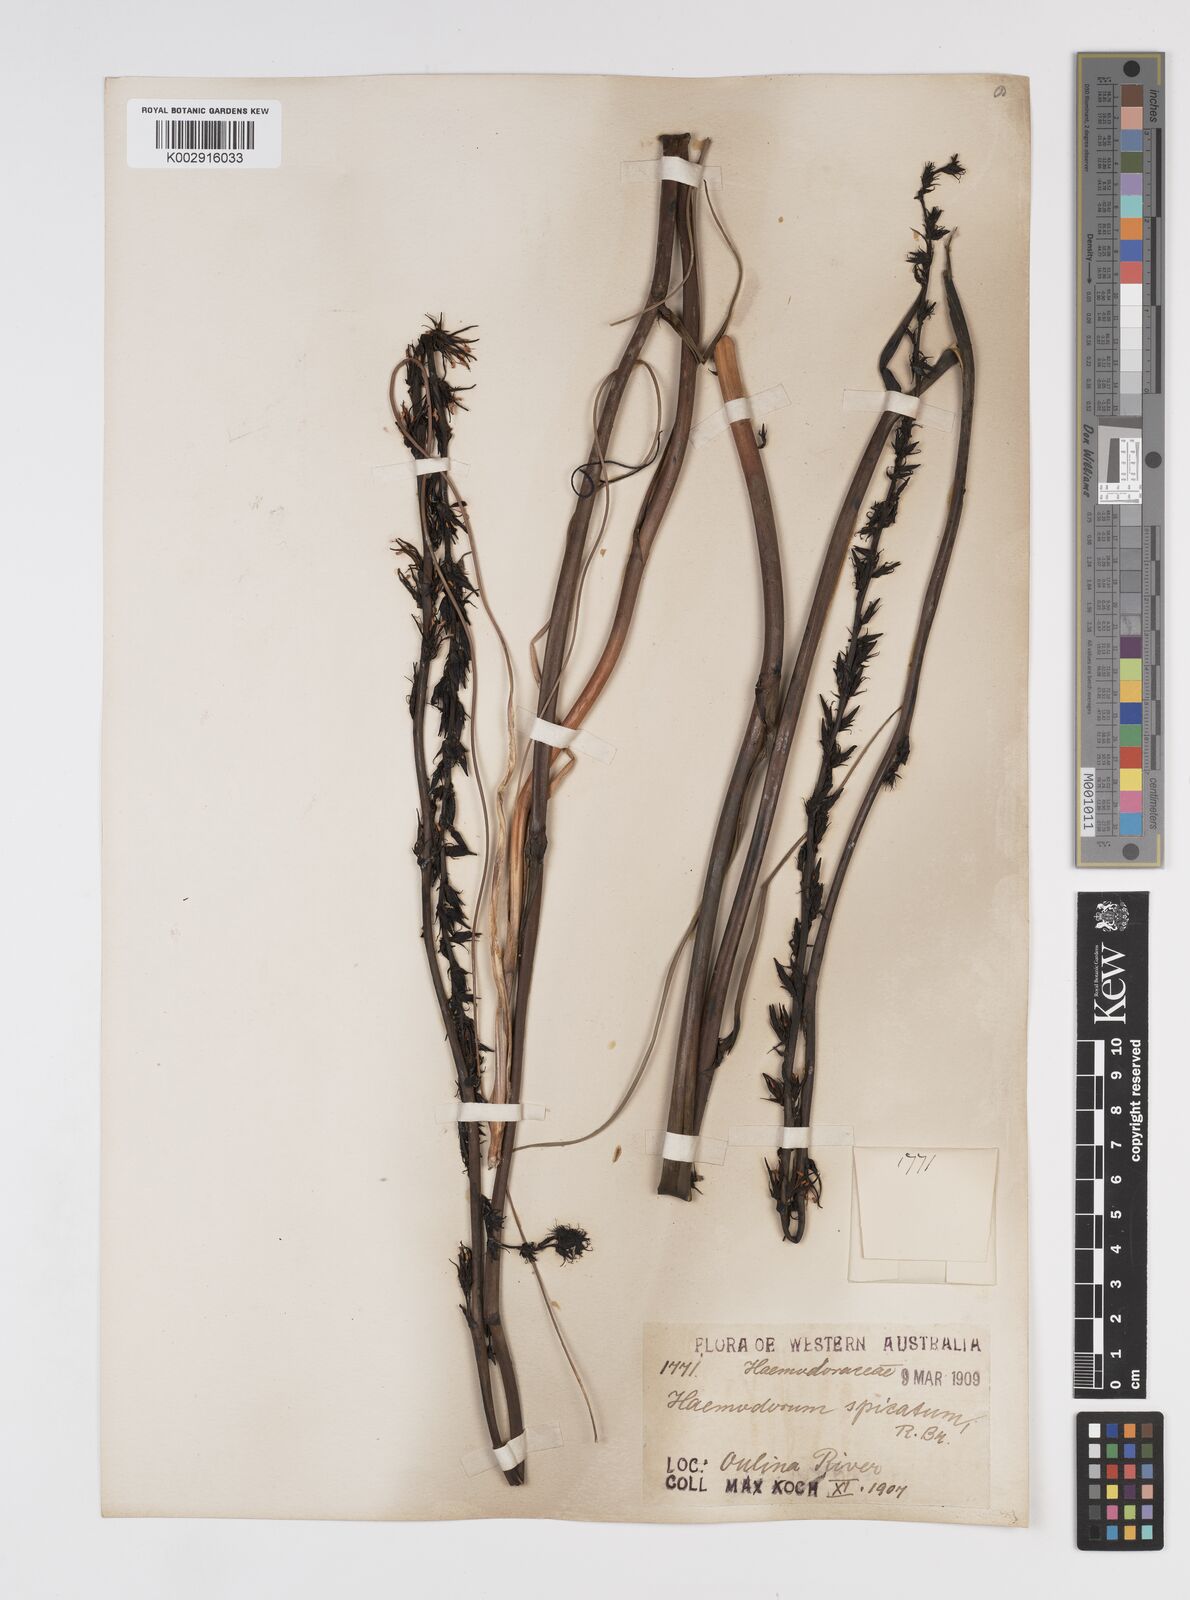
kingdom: Plantae
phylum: Tracheophyta
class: Liliopsida
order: Commelinales
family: Haemodoraceae
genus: Haemodorum
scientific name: Haemodorum spicatum
